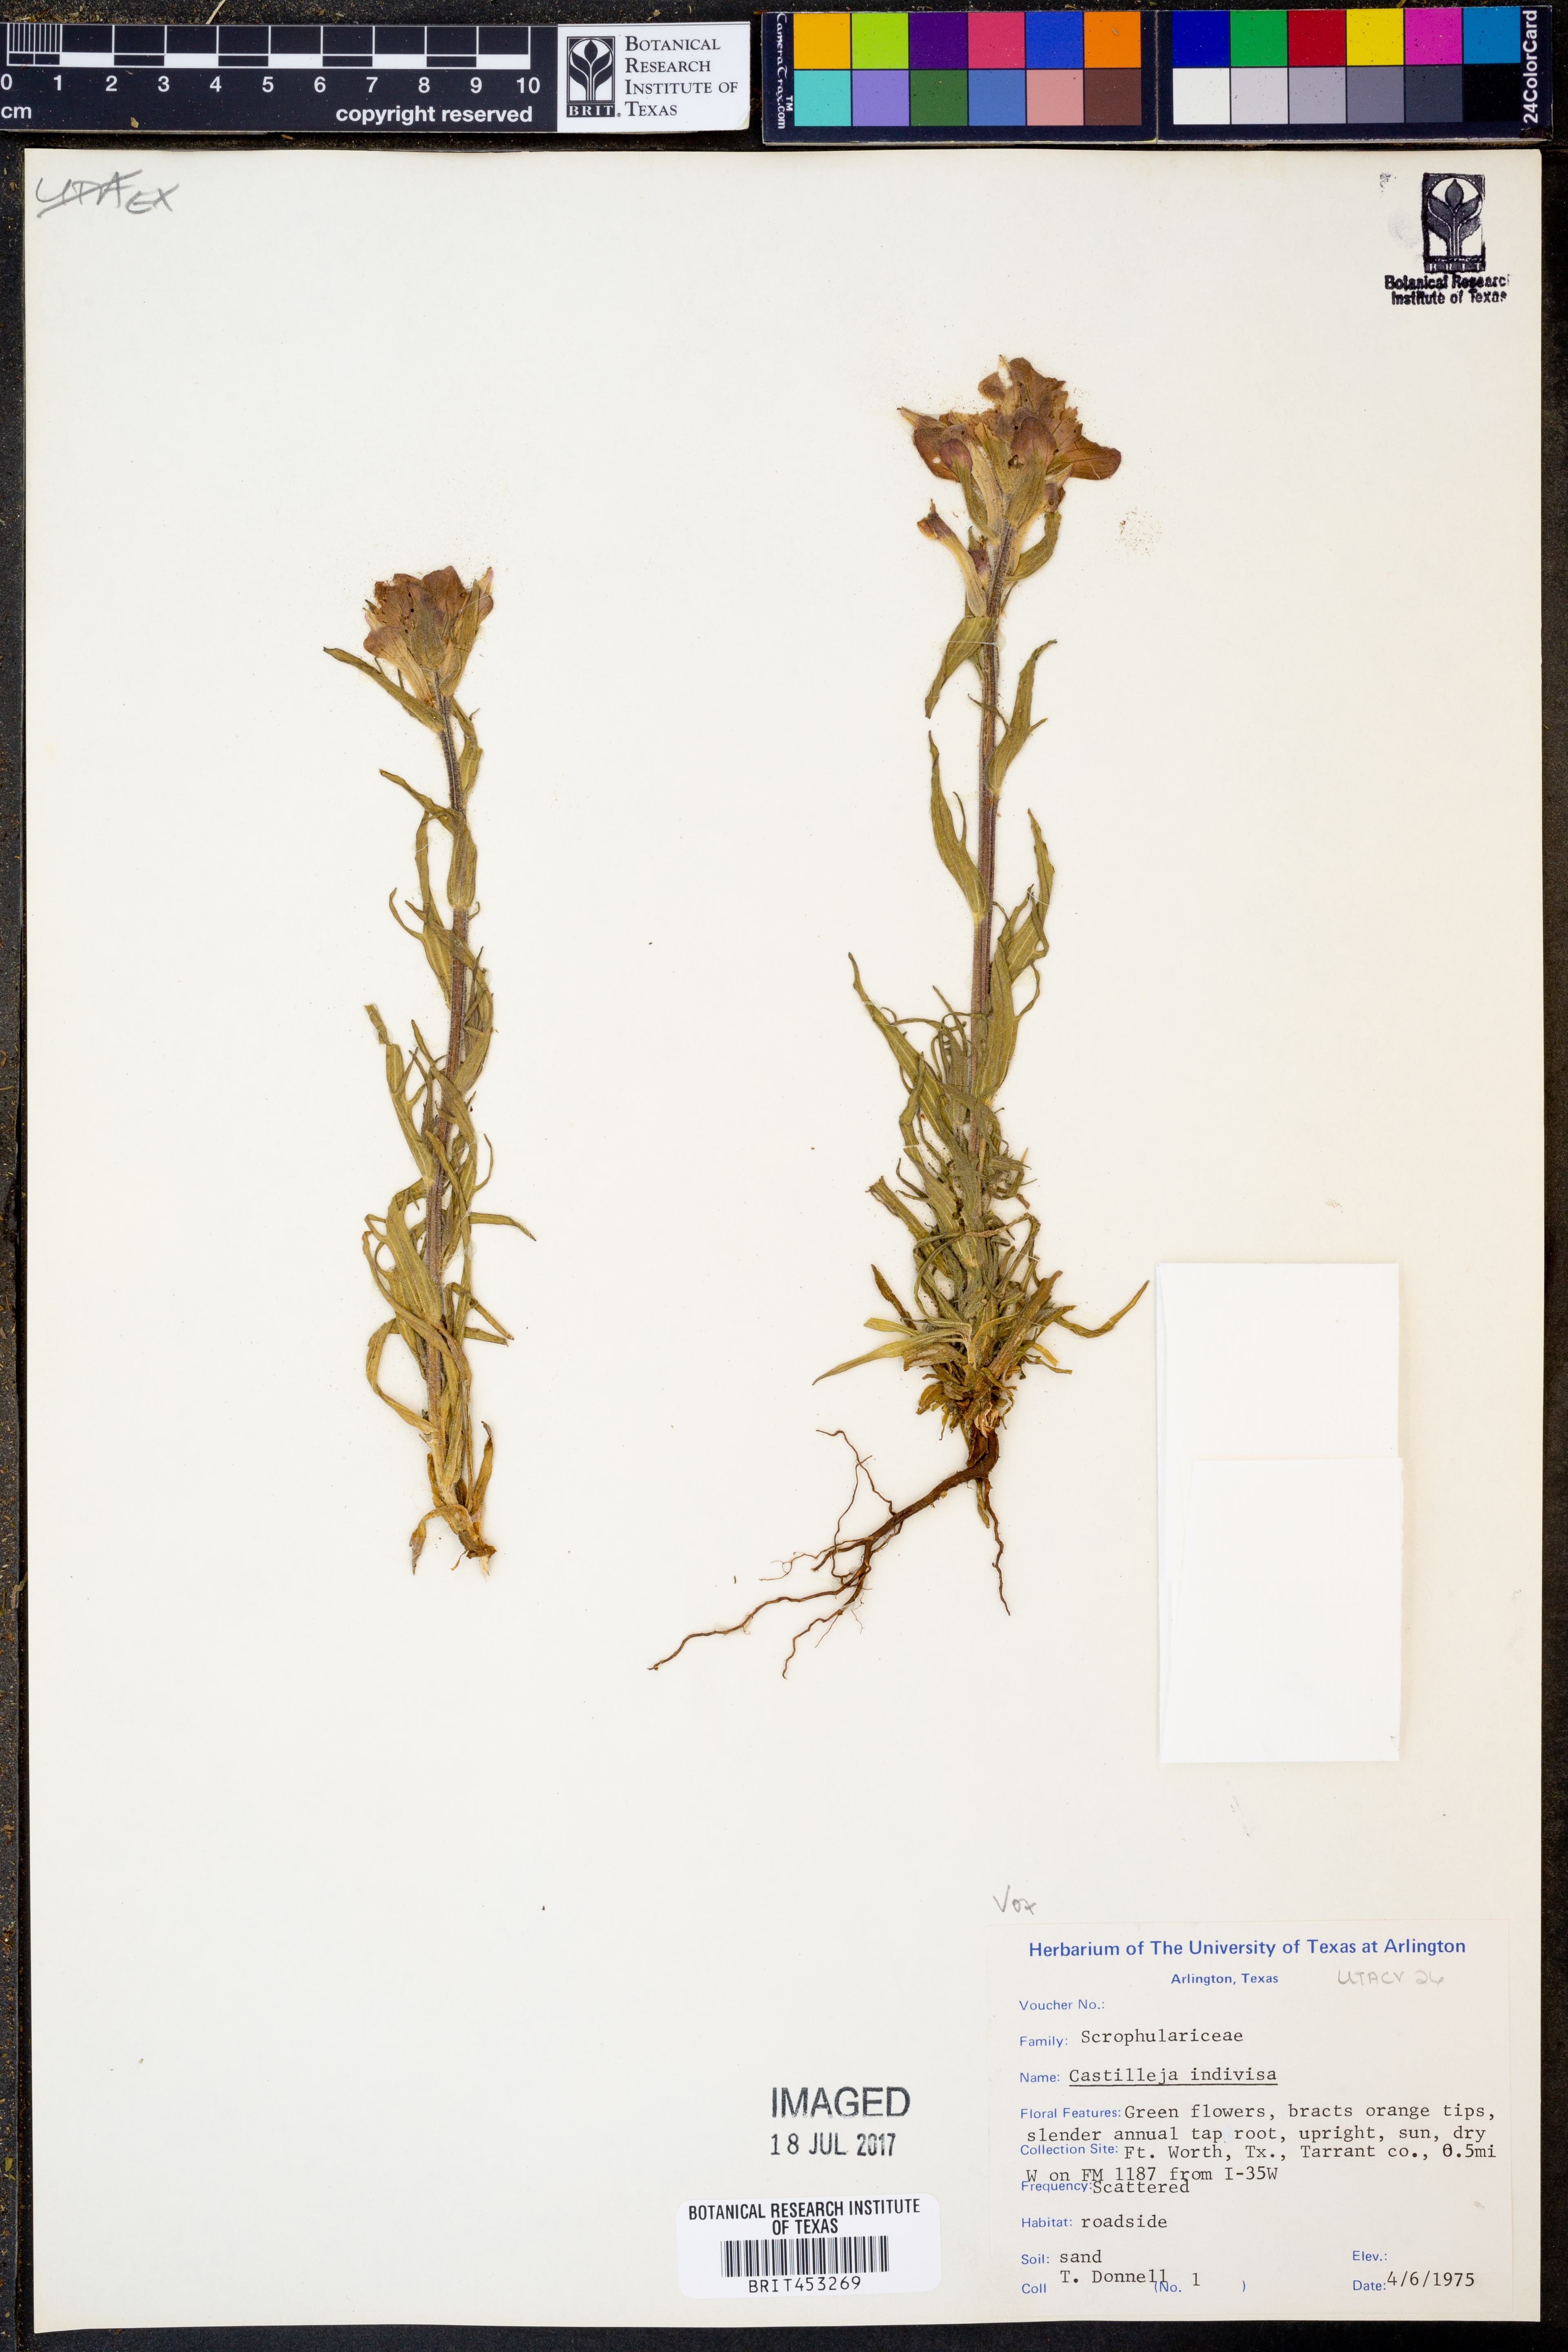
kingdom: Plantae
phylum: Tracheophyta
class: Magnoliopsida
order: Lamiales
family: Orobanchaceae
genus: Castilleja
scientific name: Castilleja indivisa
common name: Texas paintbrush
